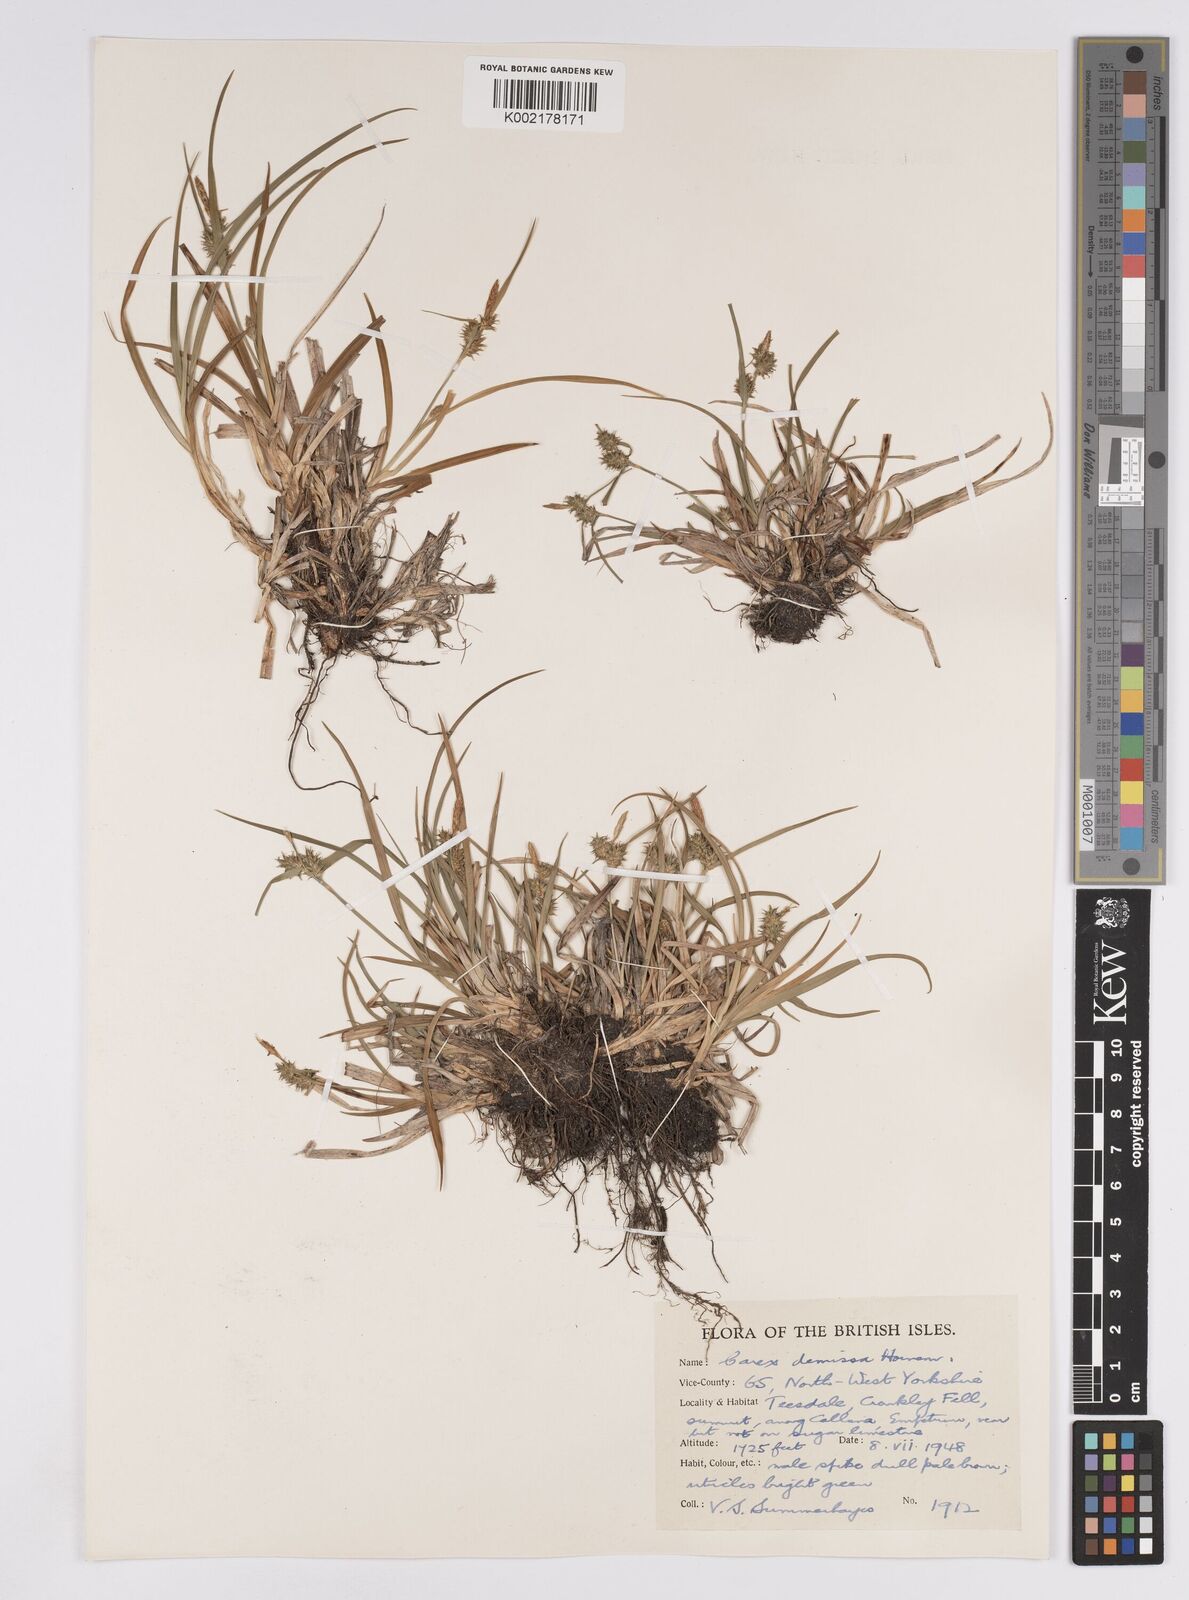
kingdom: Plantae
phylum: Tracheophyta
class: Liliopsida
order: Poales
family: Cyperaceae
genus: Carex
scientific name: Carex demissa
